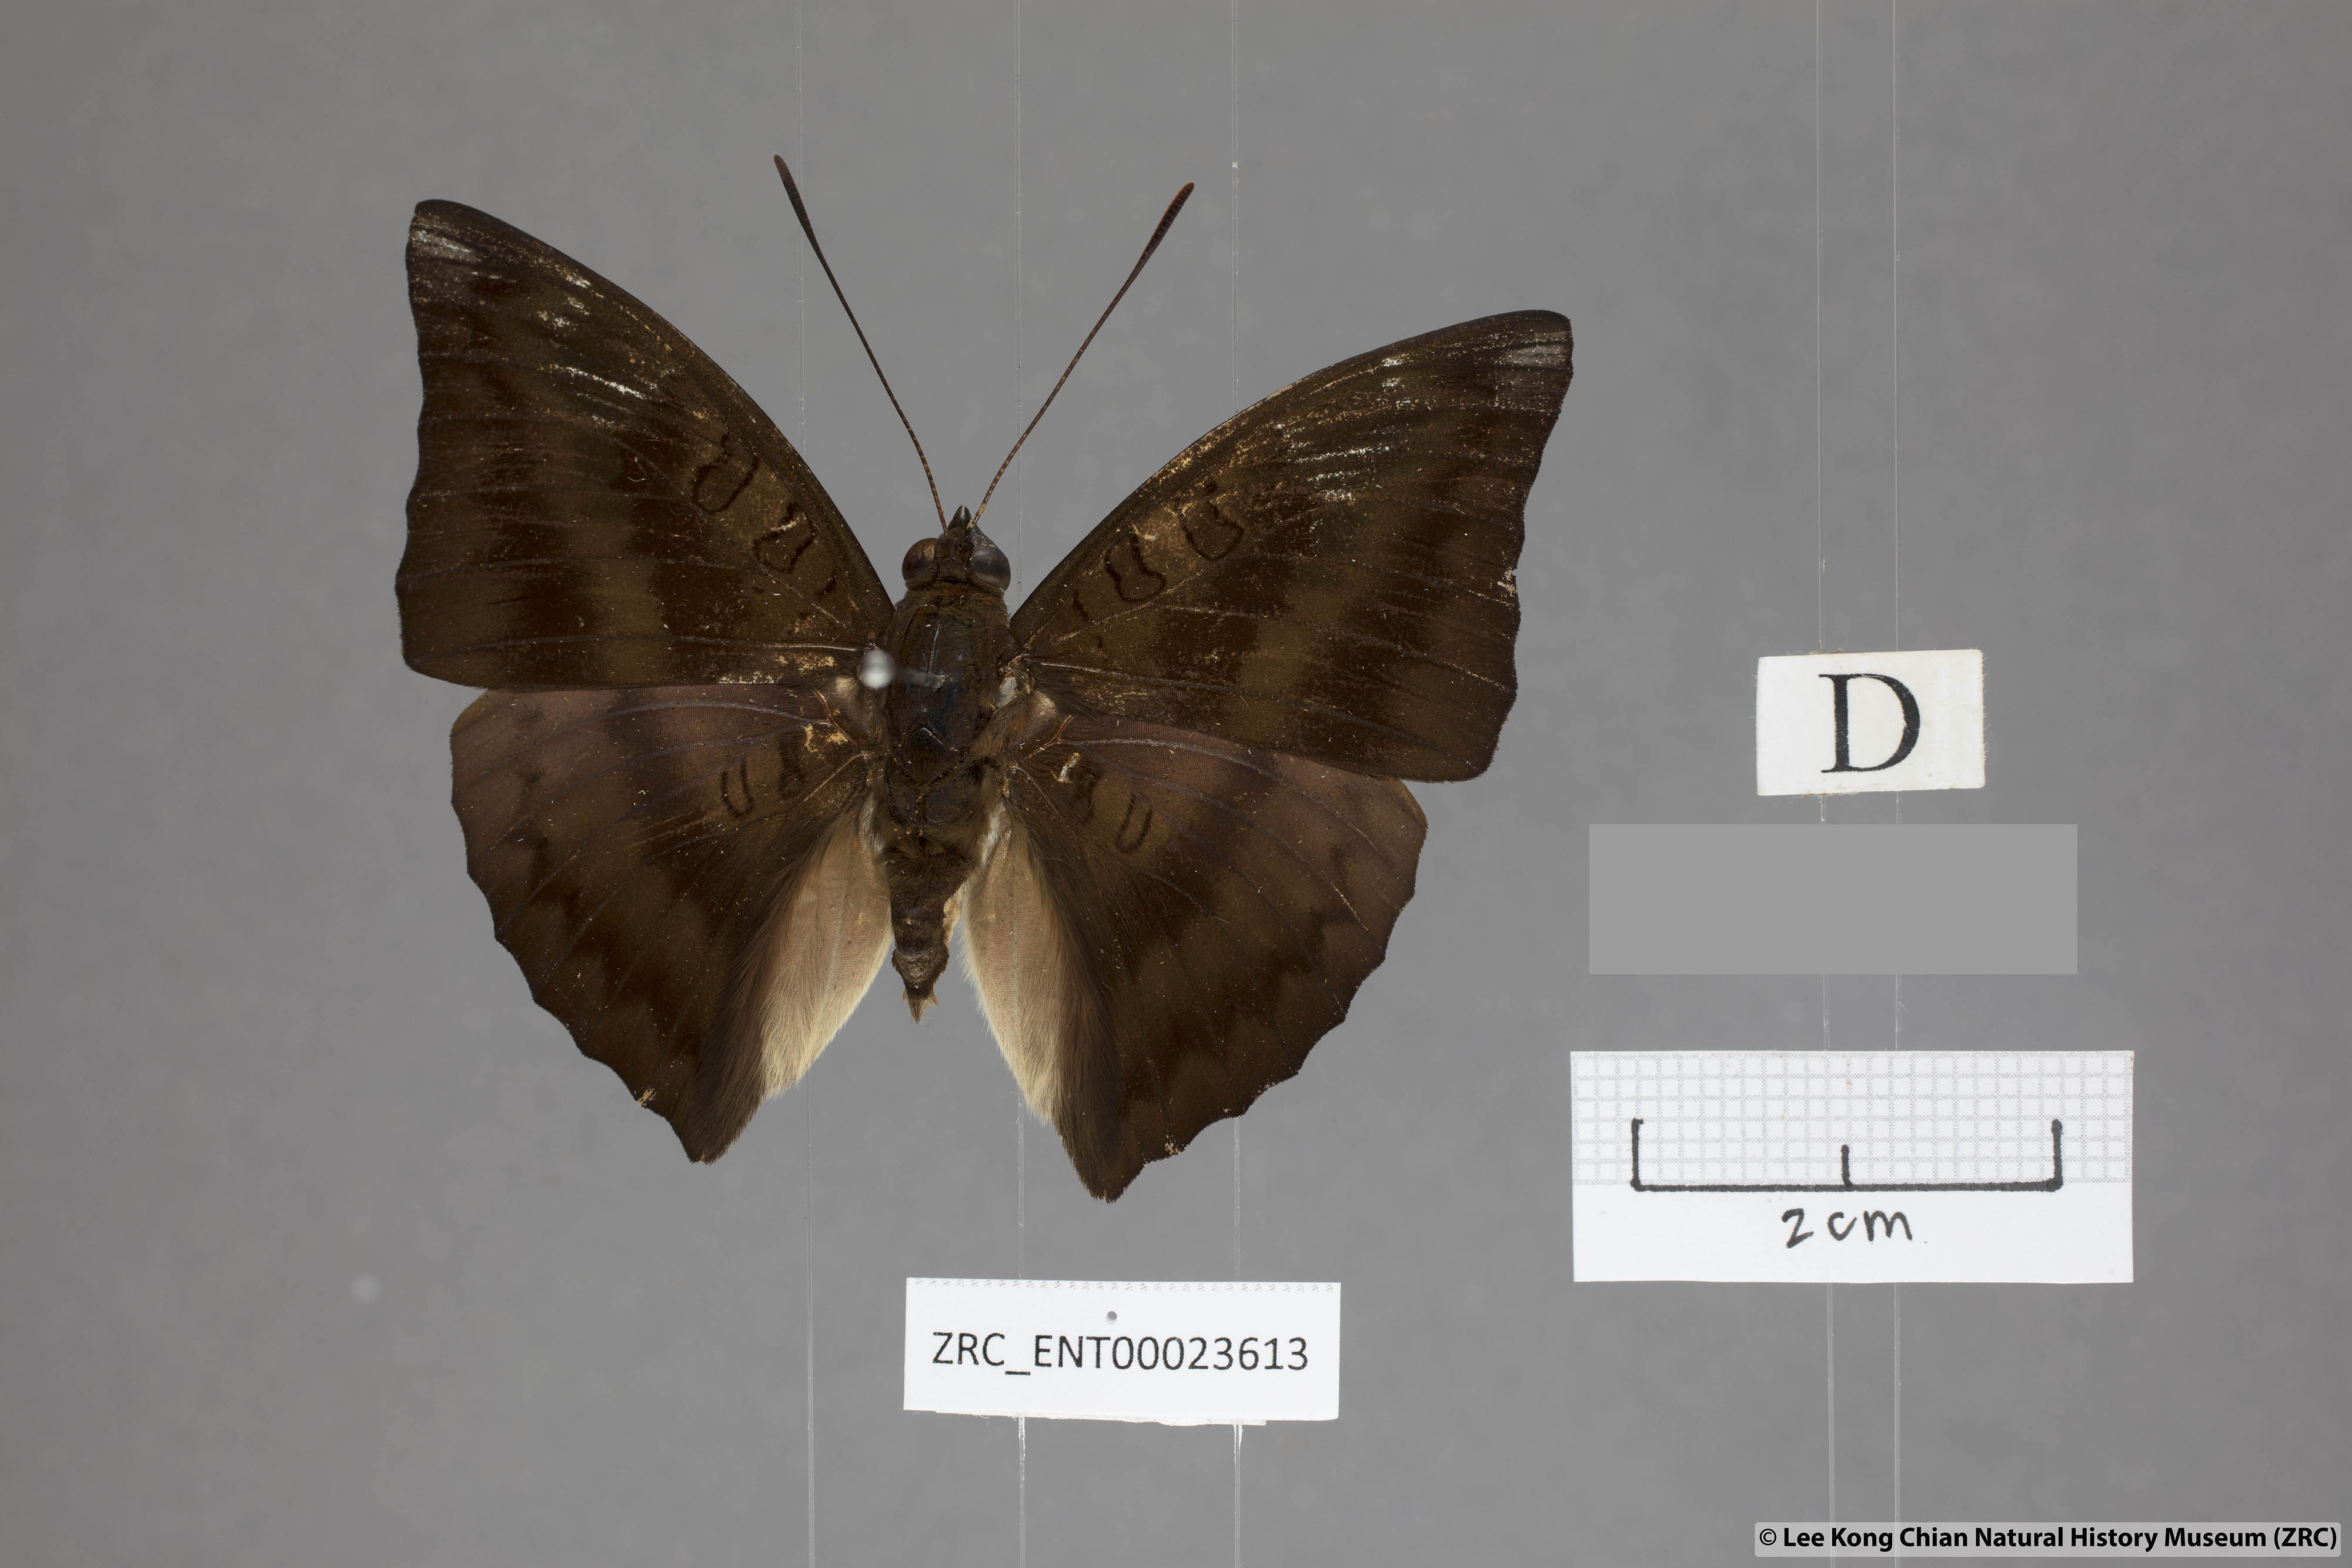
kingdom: Animalia
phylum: Arthropoda
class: Insecta
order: Lepidoptera
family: Nymphalidae
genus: Euthalia
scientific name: Euthalia alpheda
